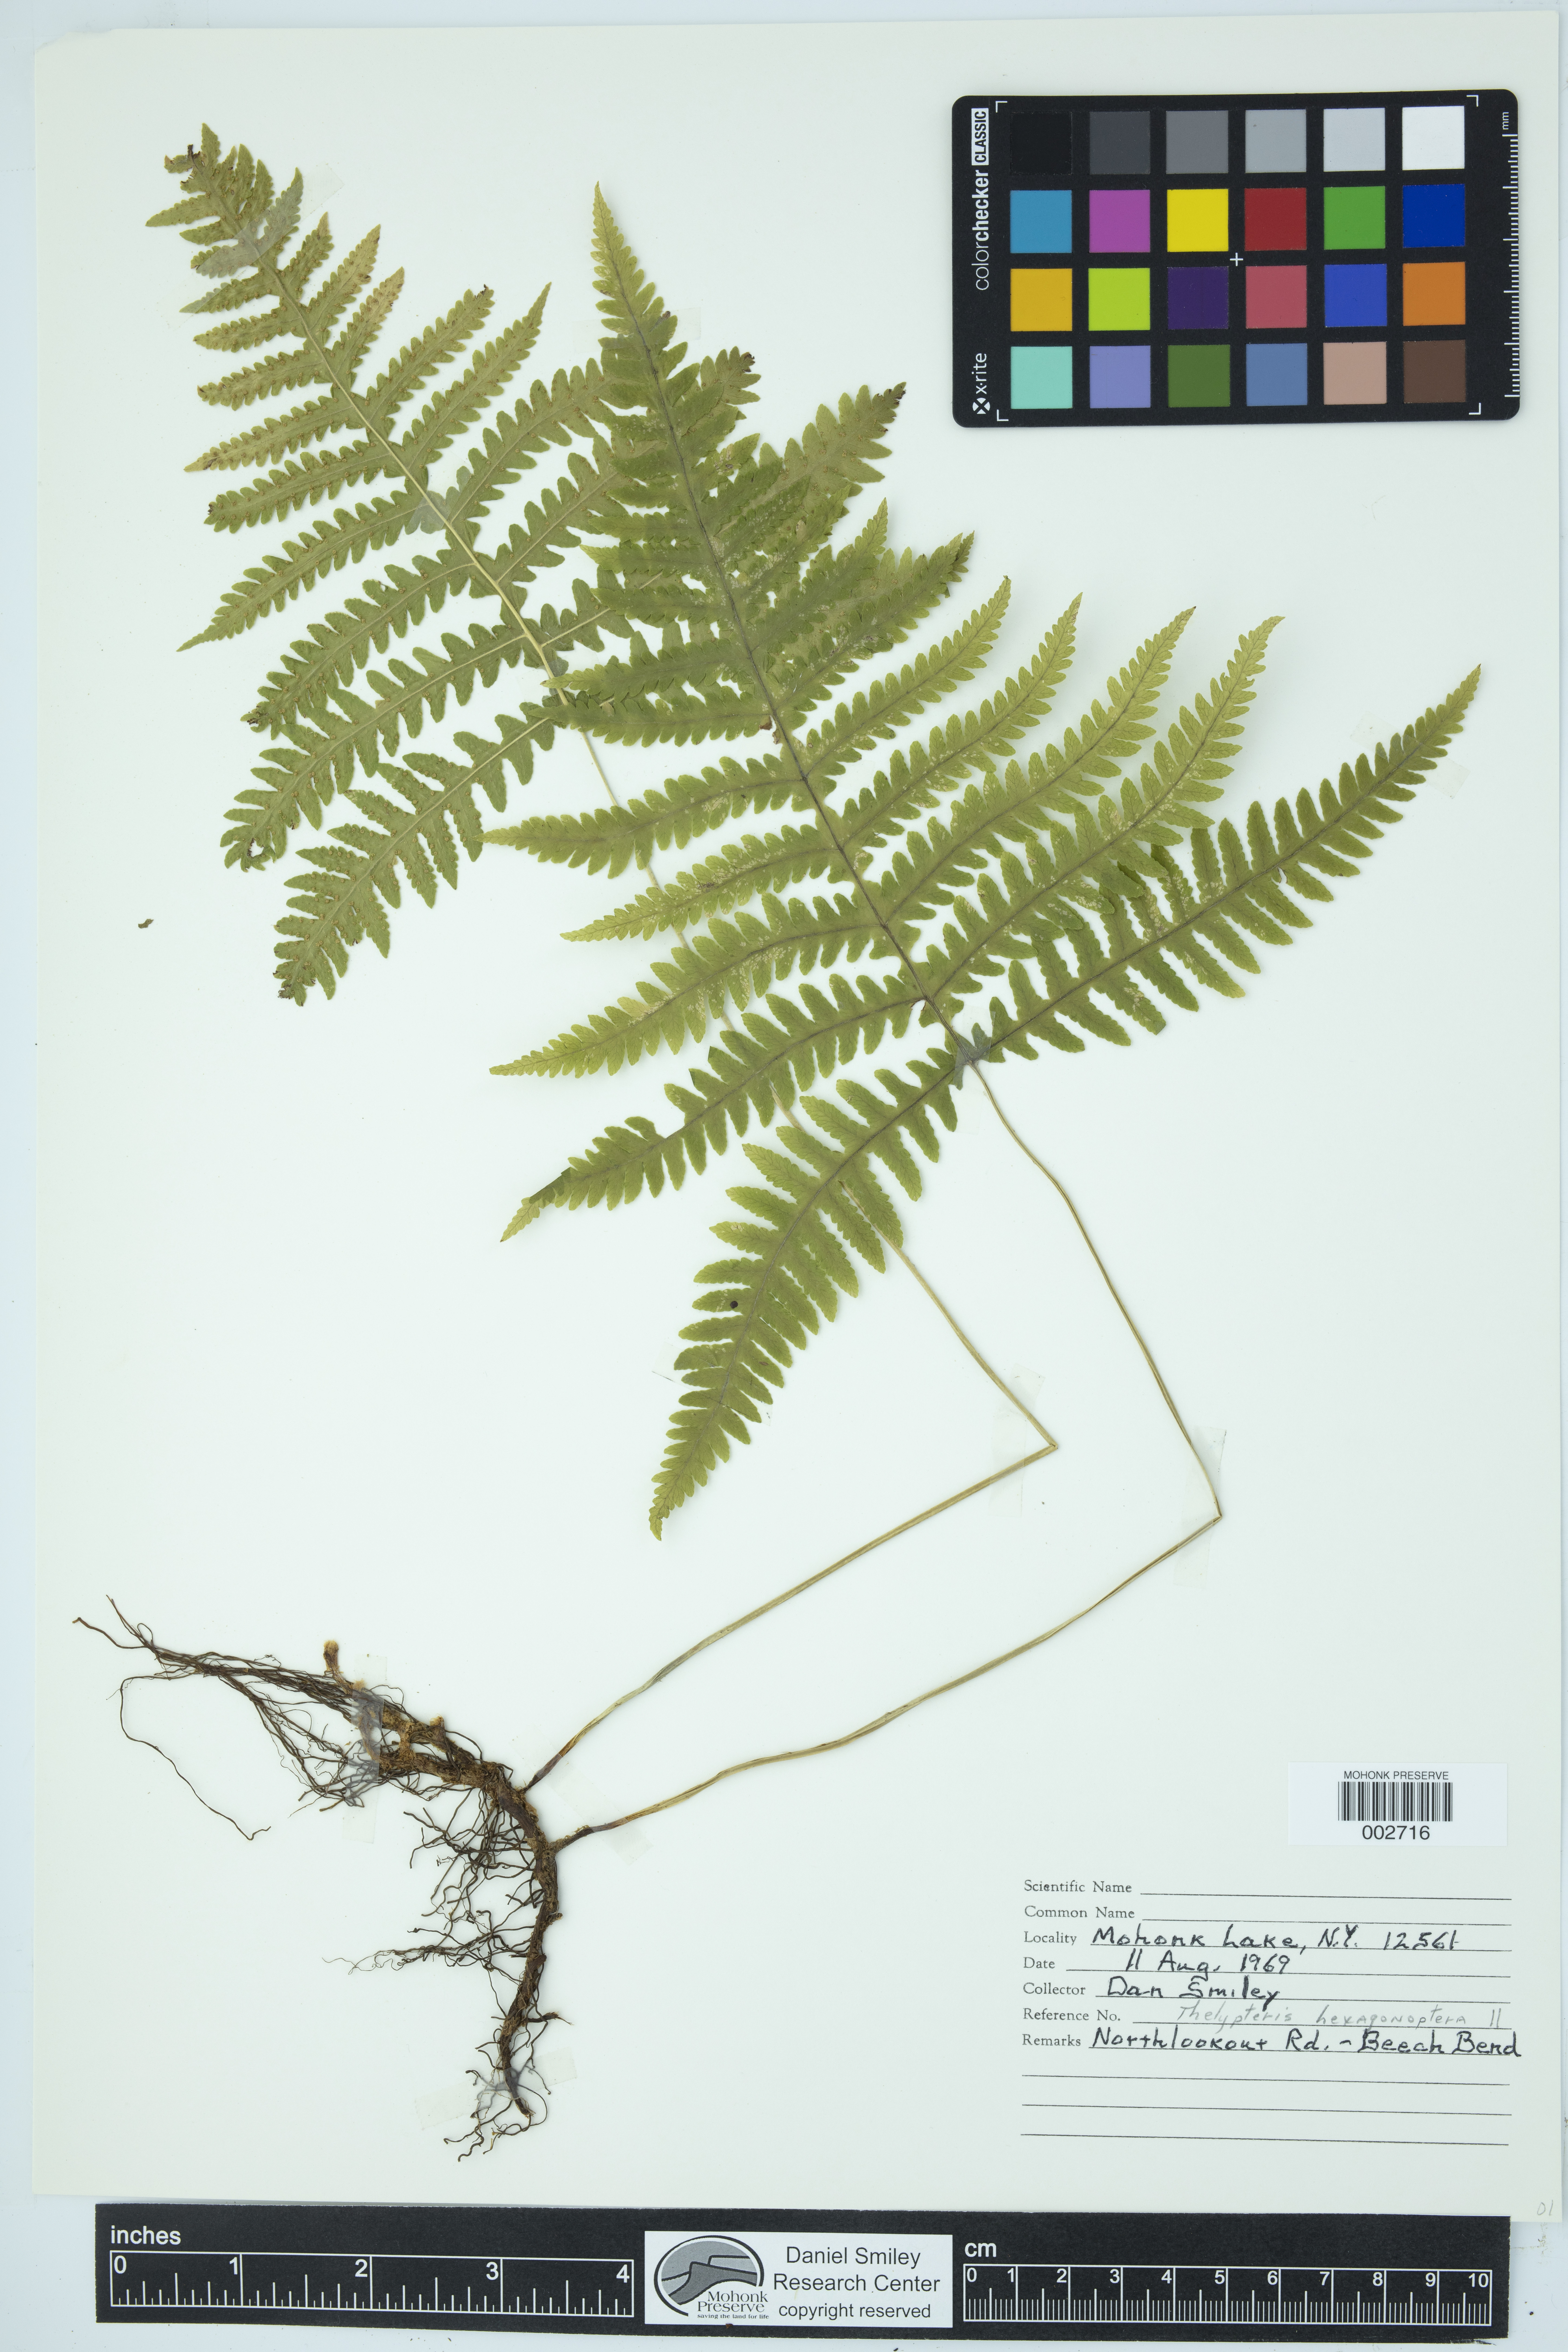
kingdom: Plantae
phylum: Tracheophyta
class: Polypodiopsida
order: Polypodiales
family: Thelypteridaceae
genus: Phegopteris
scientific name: Phegopteris hexagonoptera
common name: Broad beech fern
